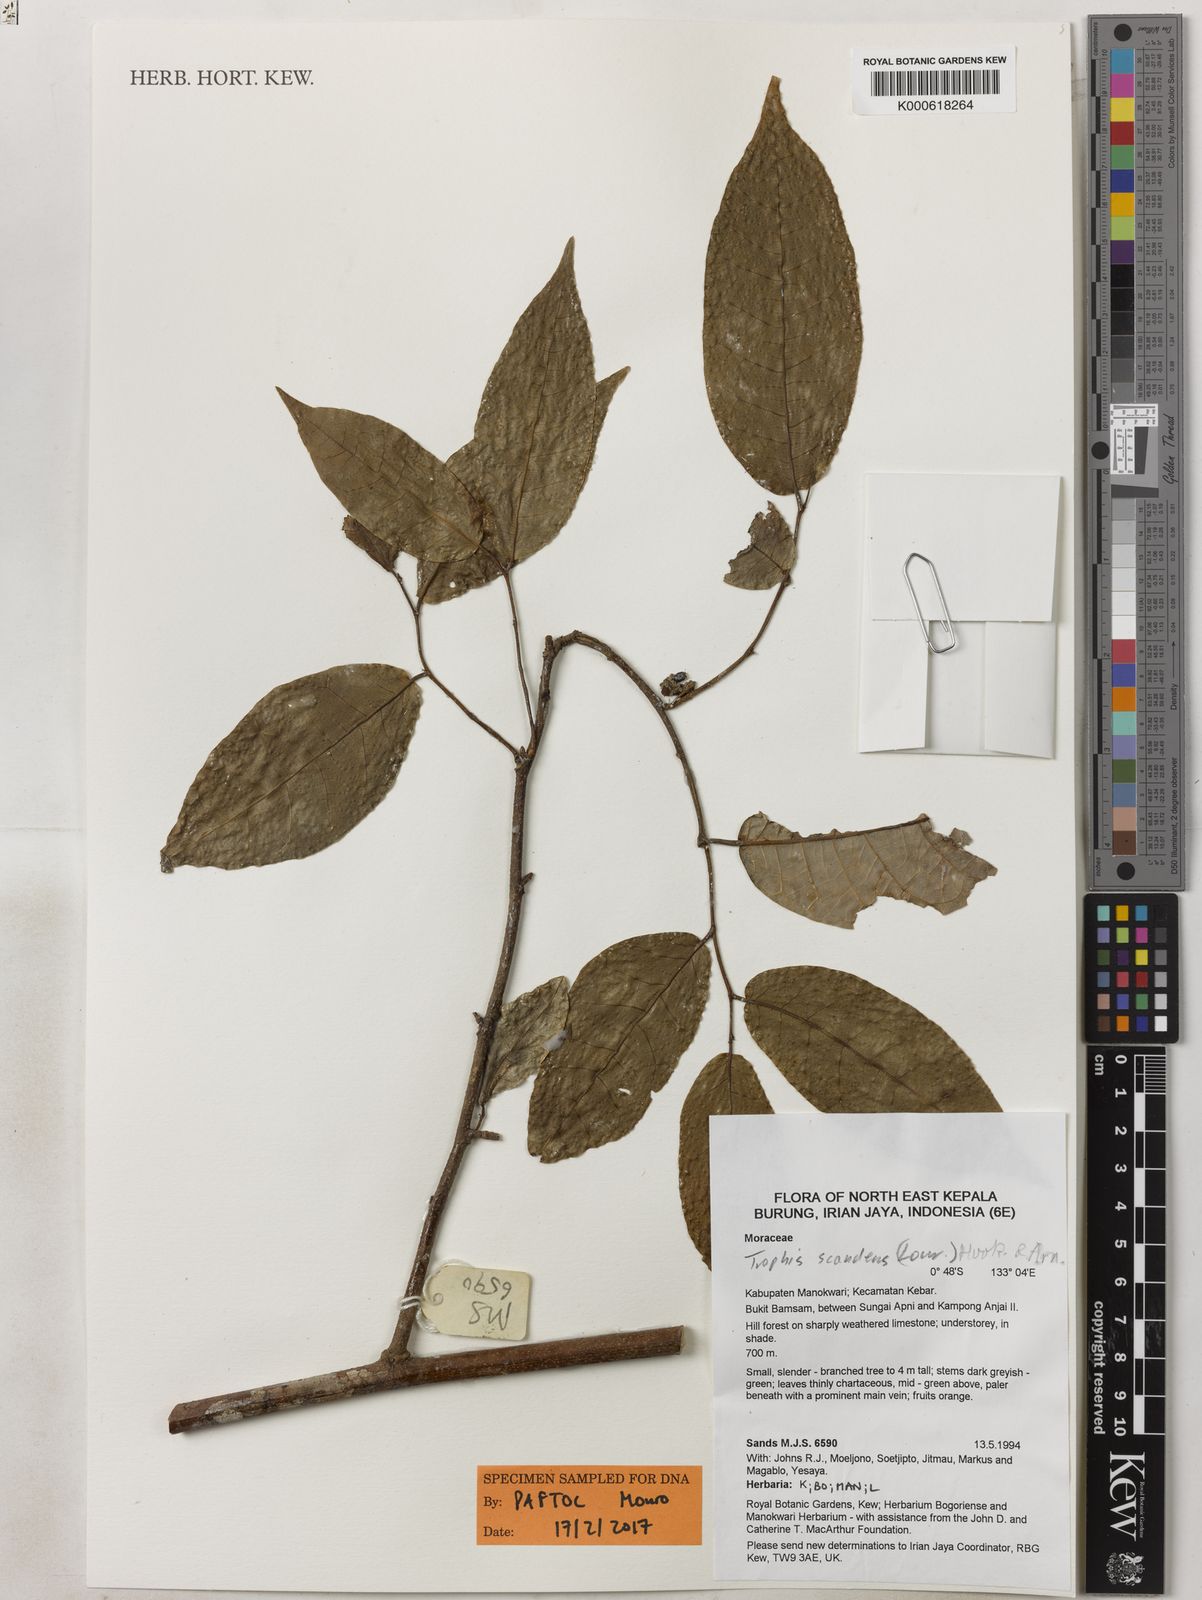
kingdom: Plantae
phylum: Tracheophyta
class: Magnoliopsida
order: Rosales
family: Moraceae
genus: Malaisia
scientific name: Malaisia scandens
